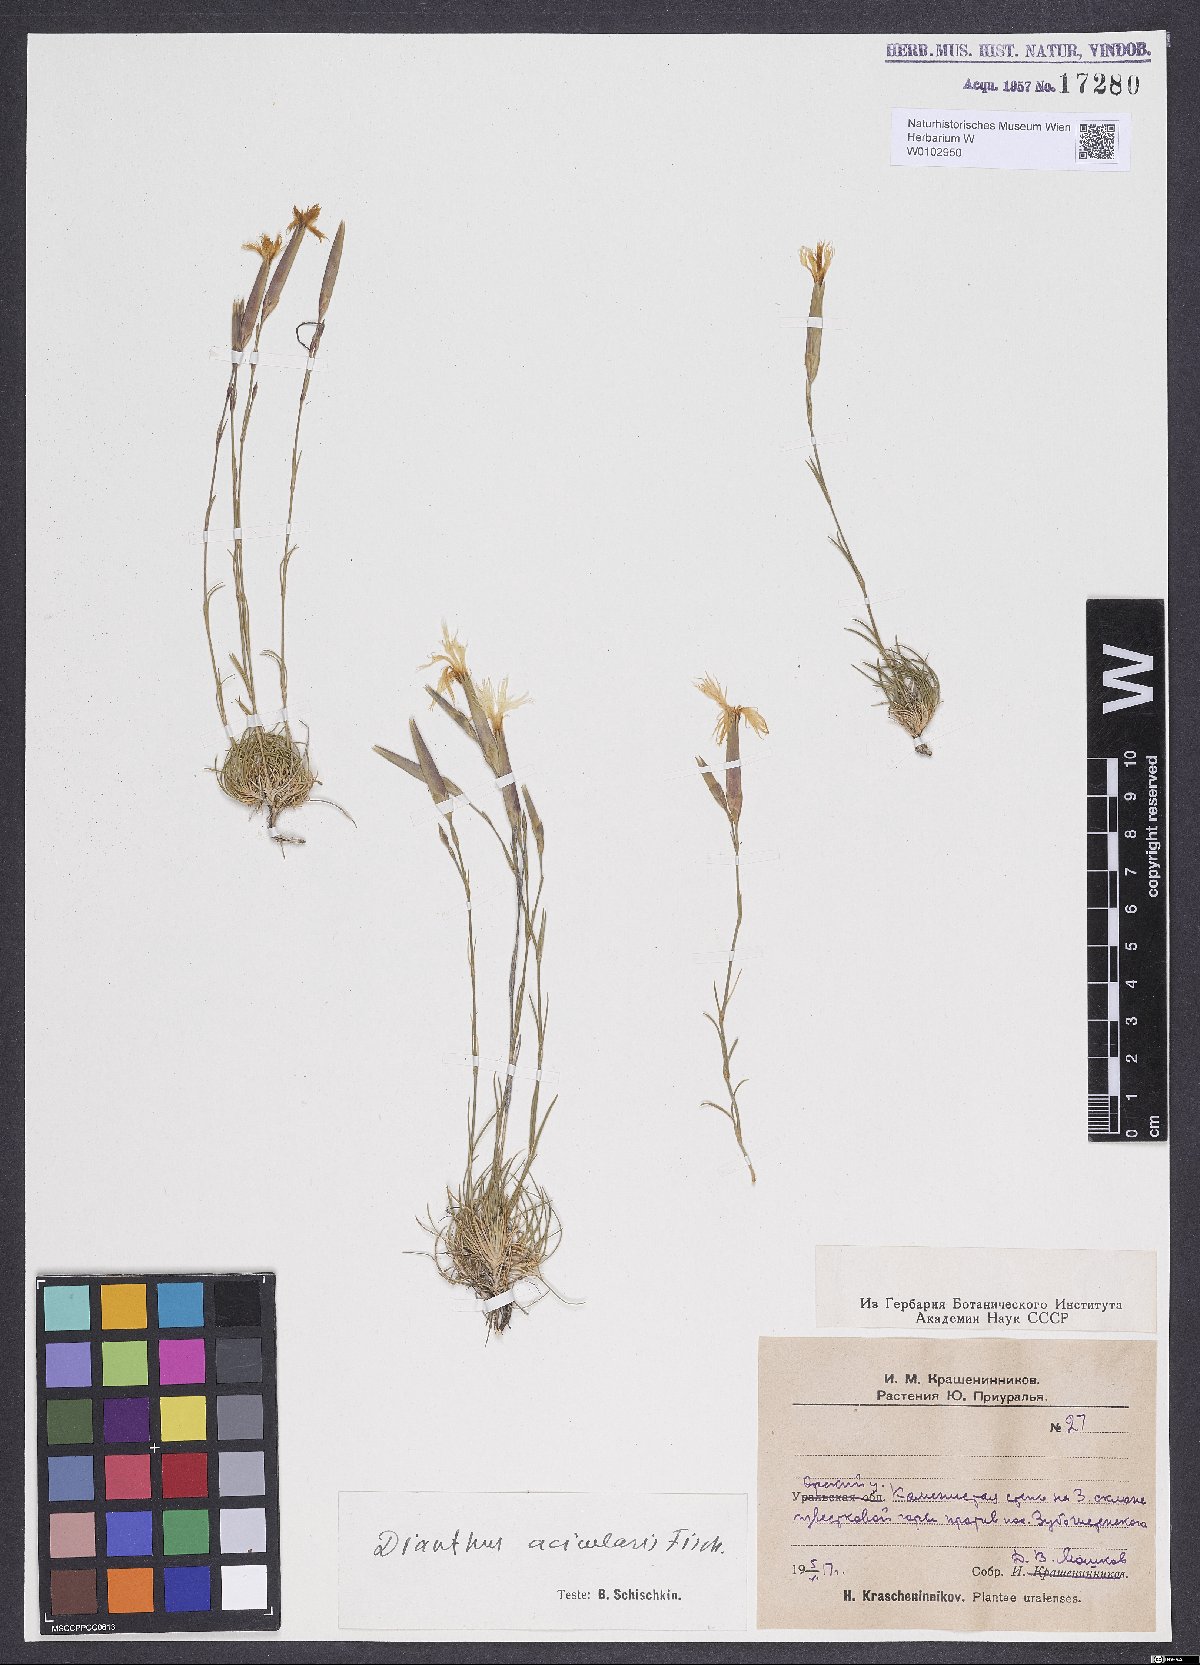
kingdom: Plantae
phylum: Tracheophyta
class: Magnoliopsida
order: Caryophyllales
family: Caryophyllaceae
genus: Dianthus
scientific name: Dianthus acicularis
